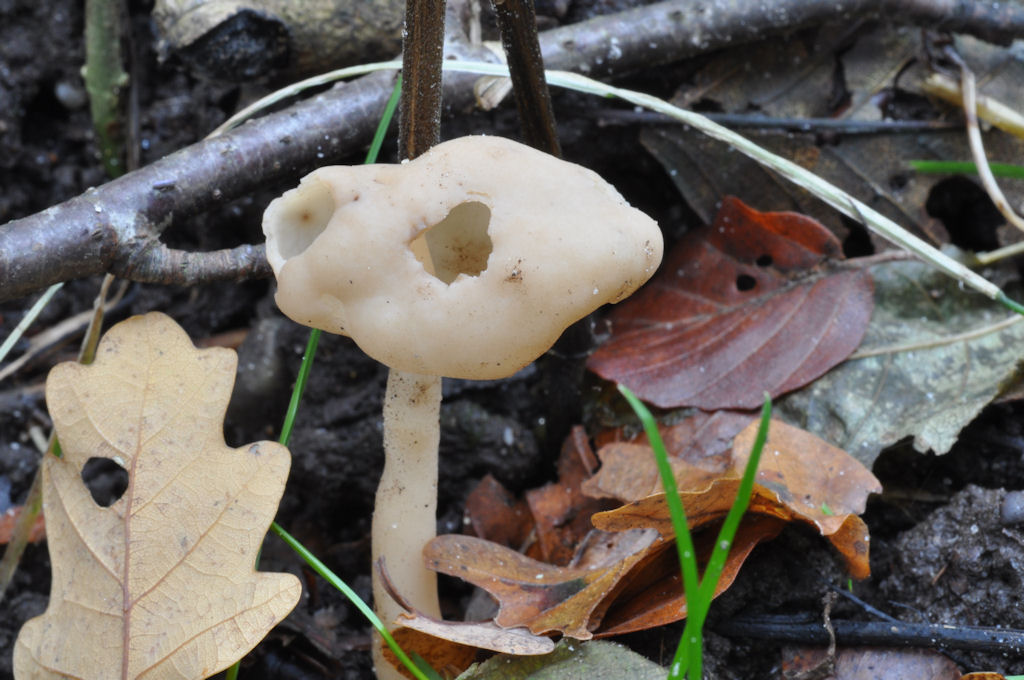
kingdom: Fungi
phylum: Ascomycota
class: Pezizomycetes
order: Pezizales
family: Helvellaceae
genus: Helvella
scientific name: Helvella elastica
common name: elastik-foldhat
